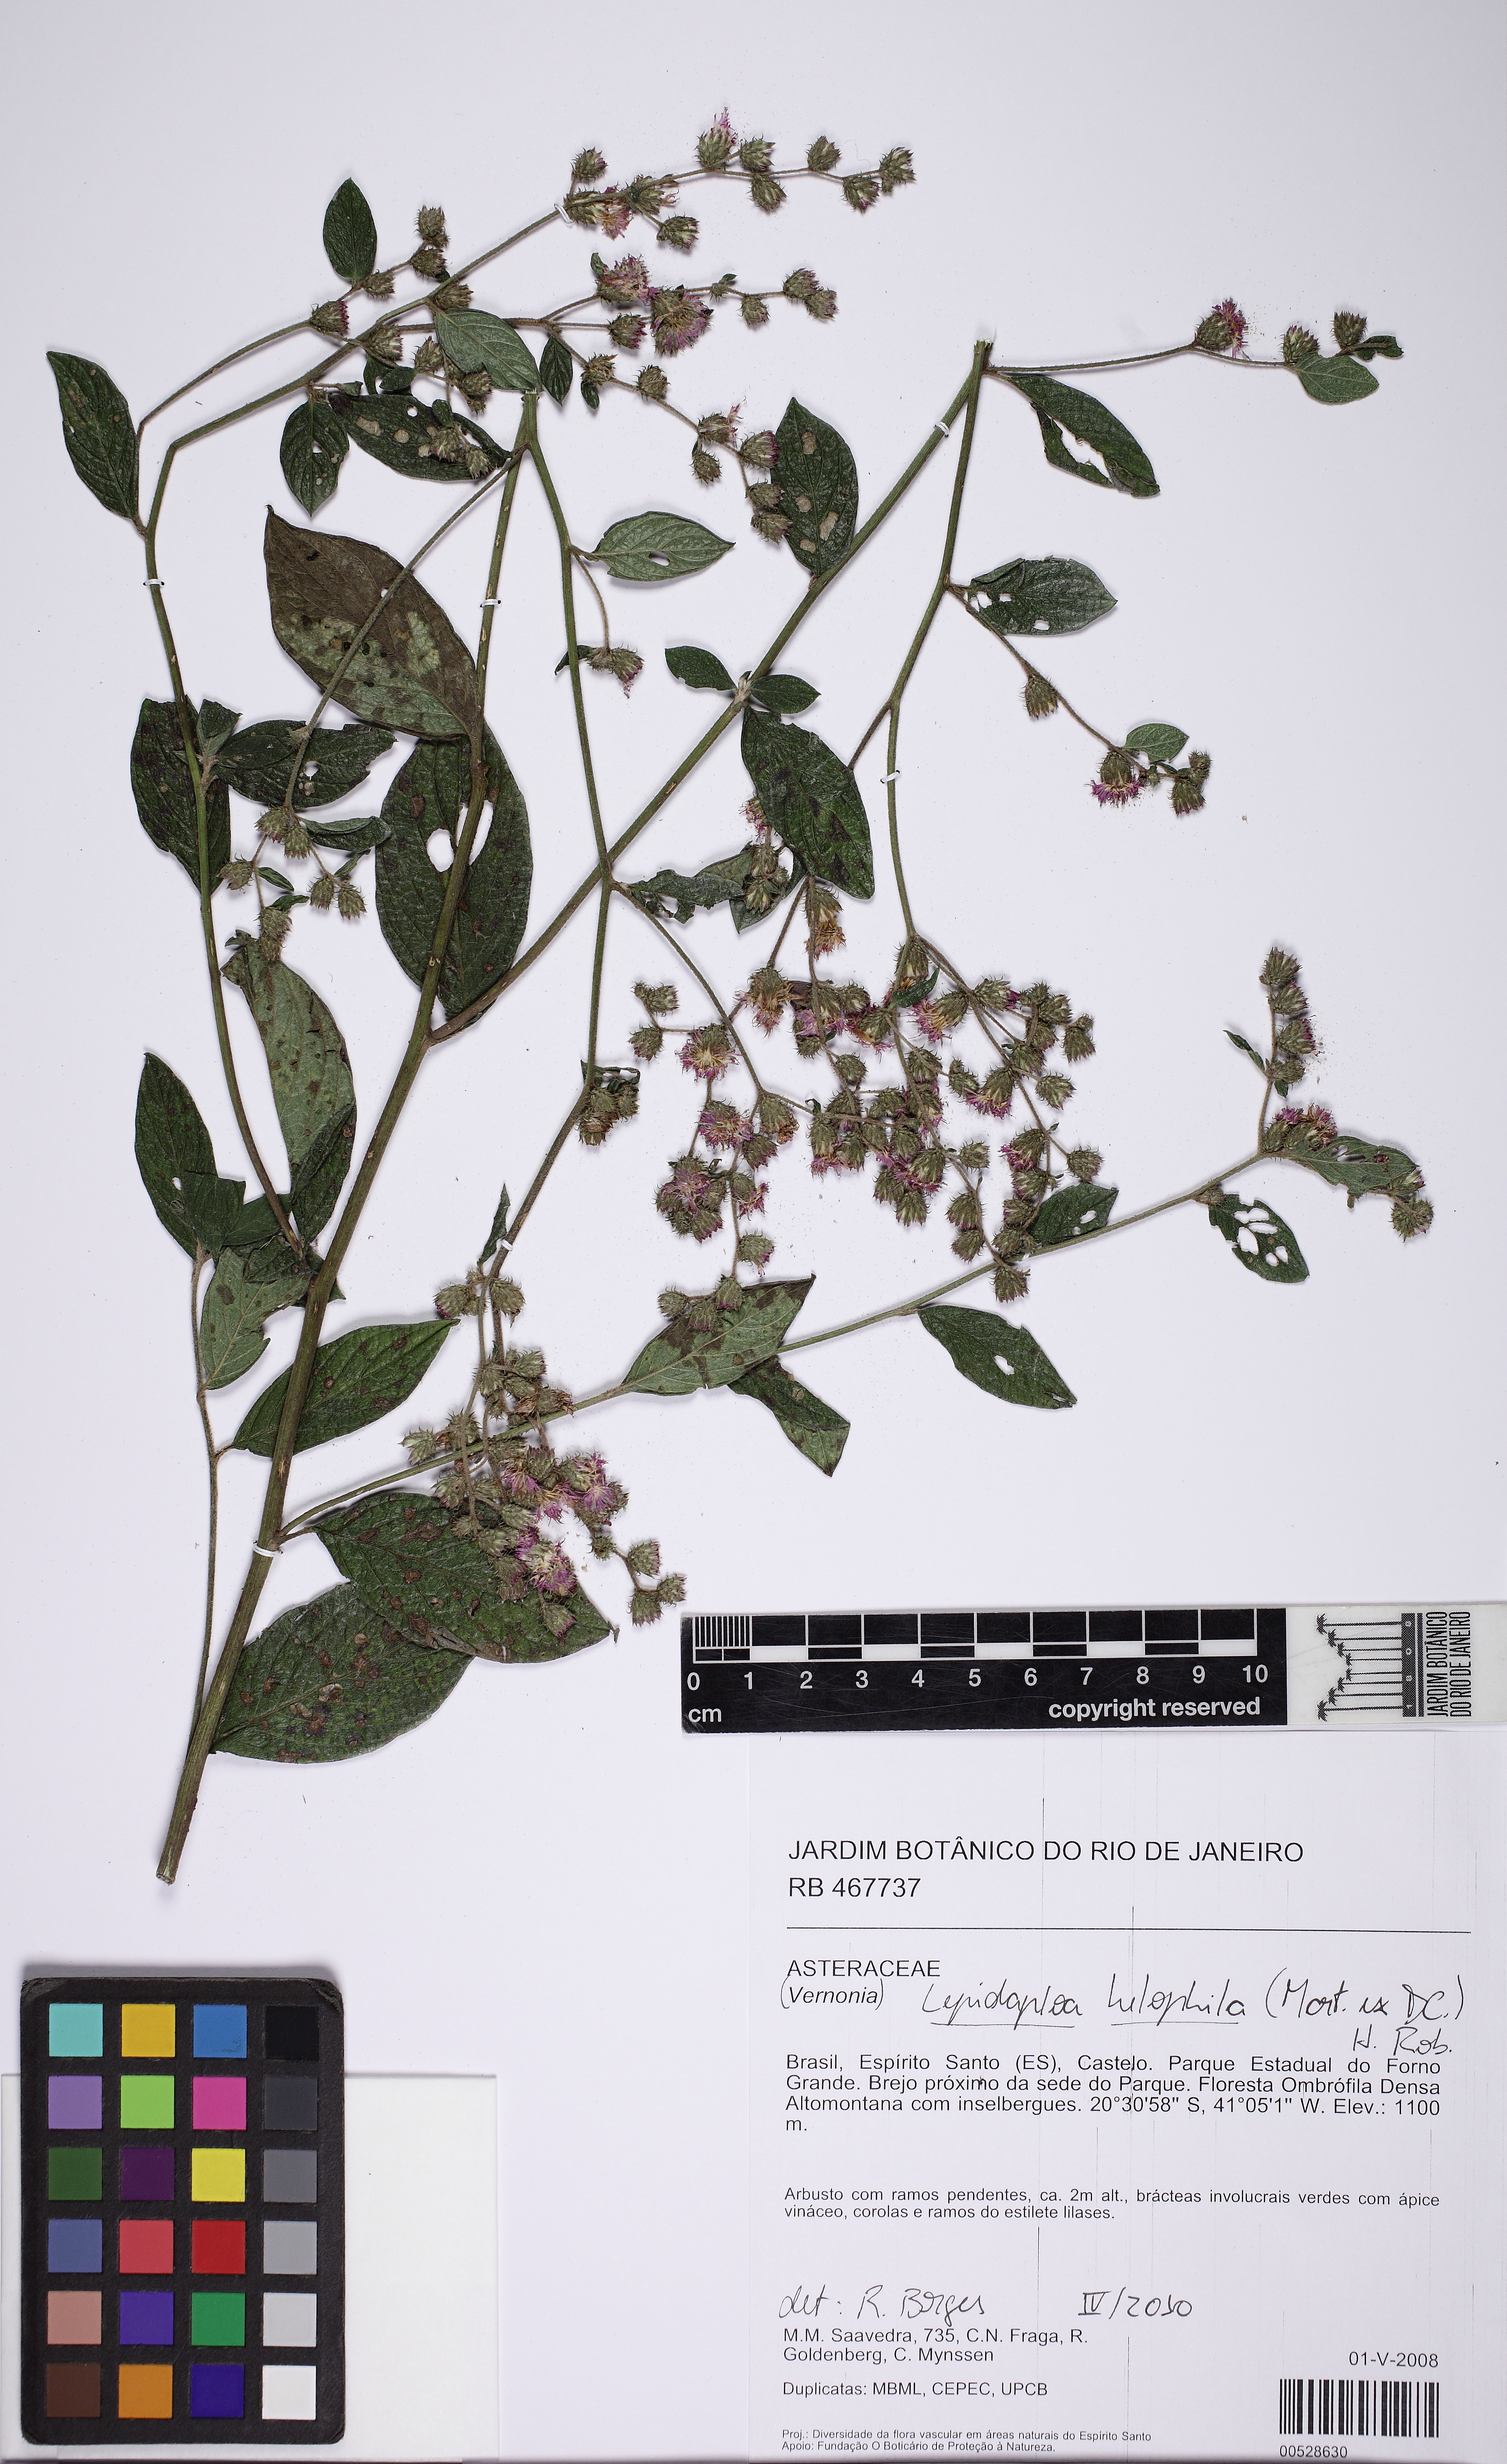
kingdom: Plantae
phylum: Tracheophyta
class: Magnoliopsida
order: Asterales
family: Asteraceae
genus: Lepidaploa
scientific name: Lepidaploa helophila
